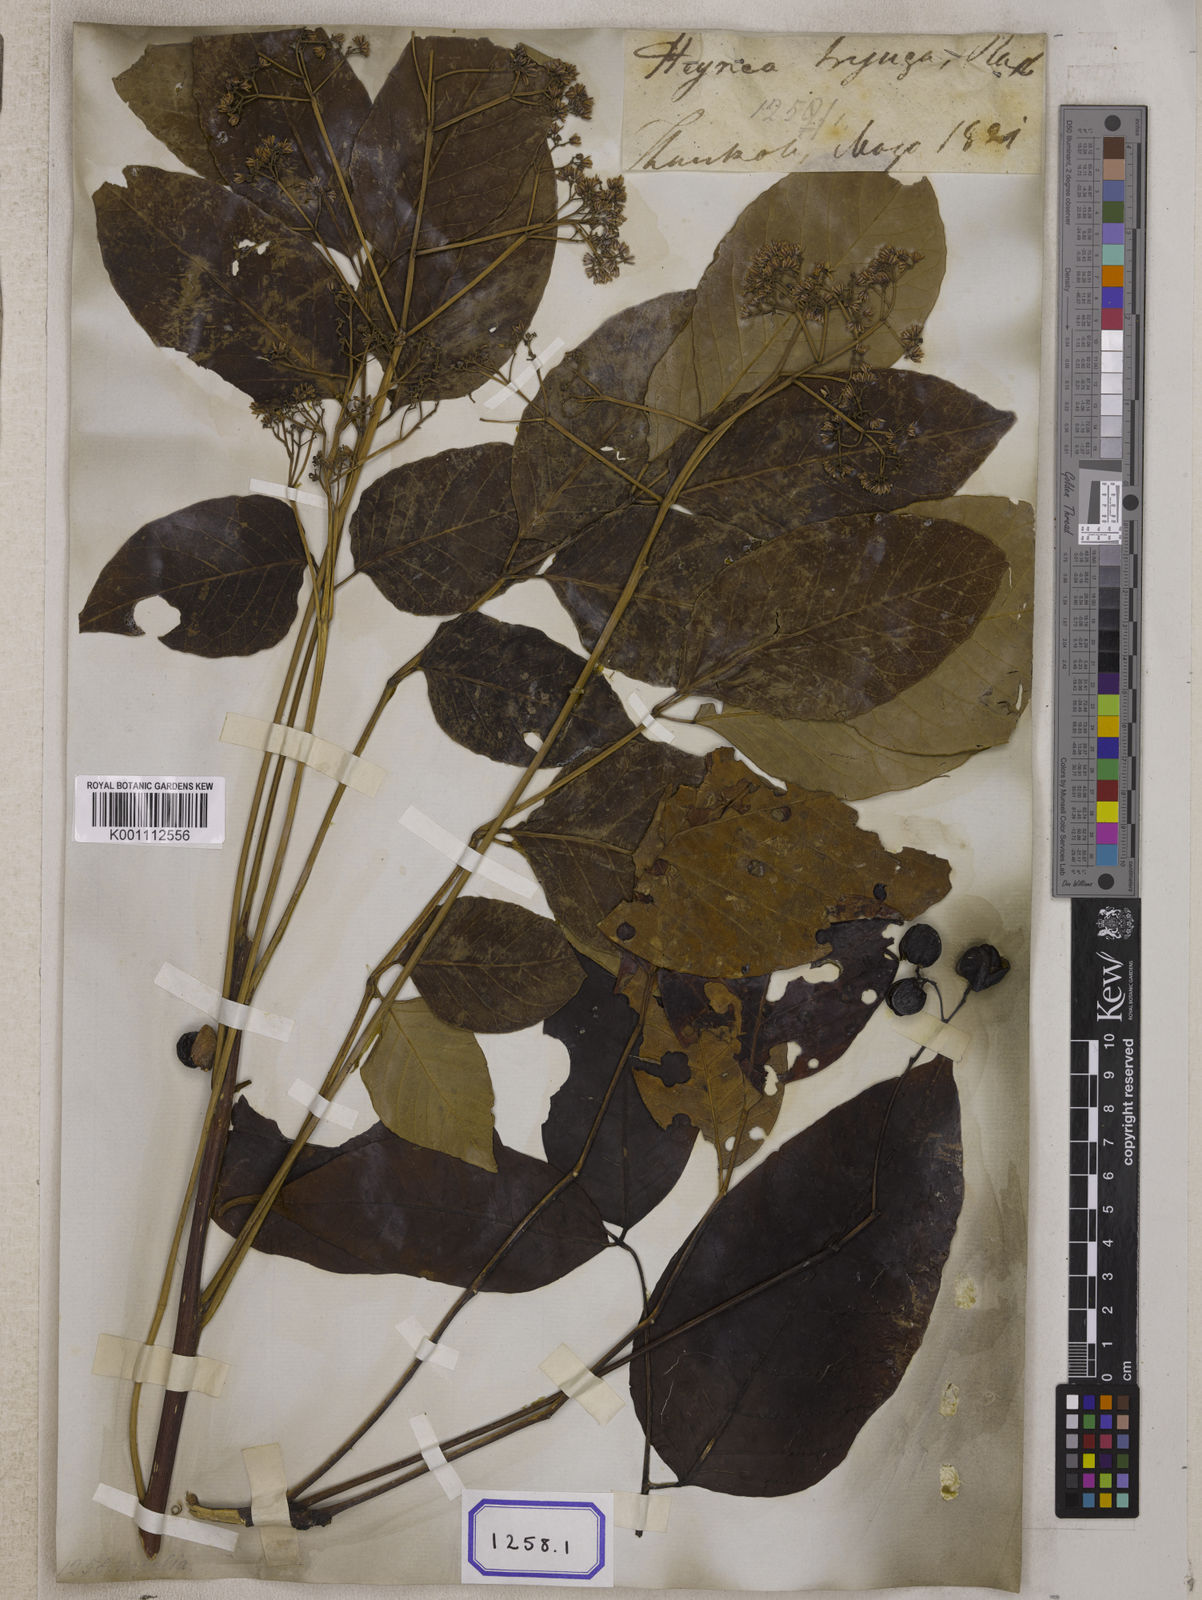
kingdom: Plantae
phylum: Tracheophyta
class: Magnoliopsida
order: Sapindales
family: Meliaceae
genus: Heynea
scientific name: Heynea trijuga
